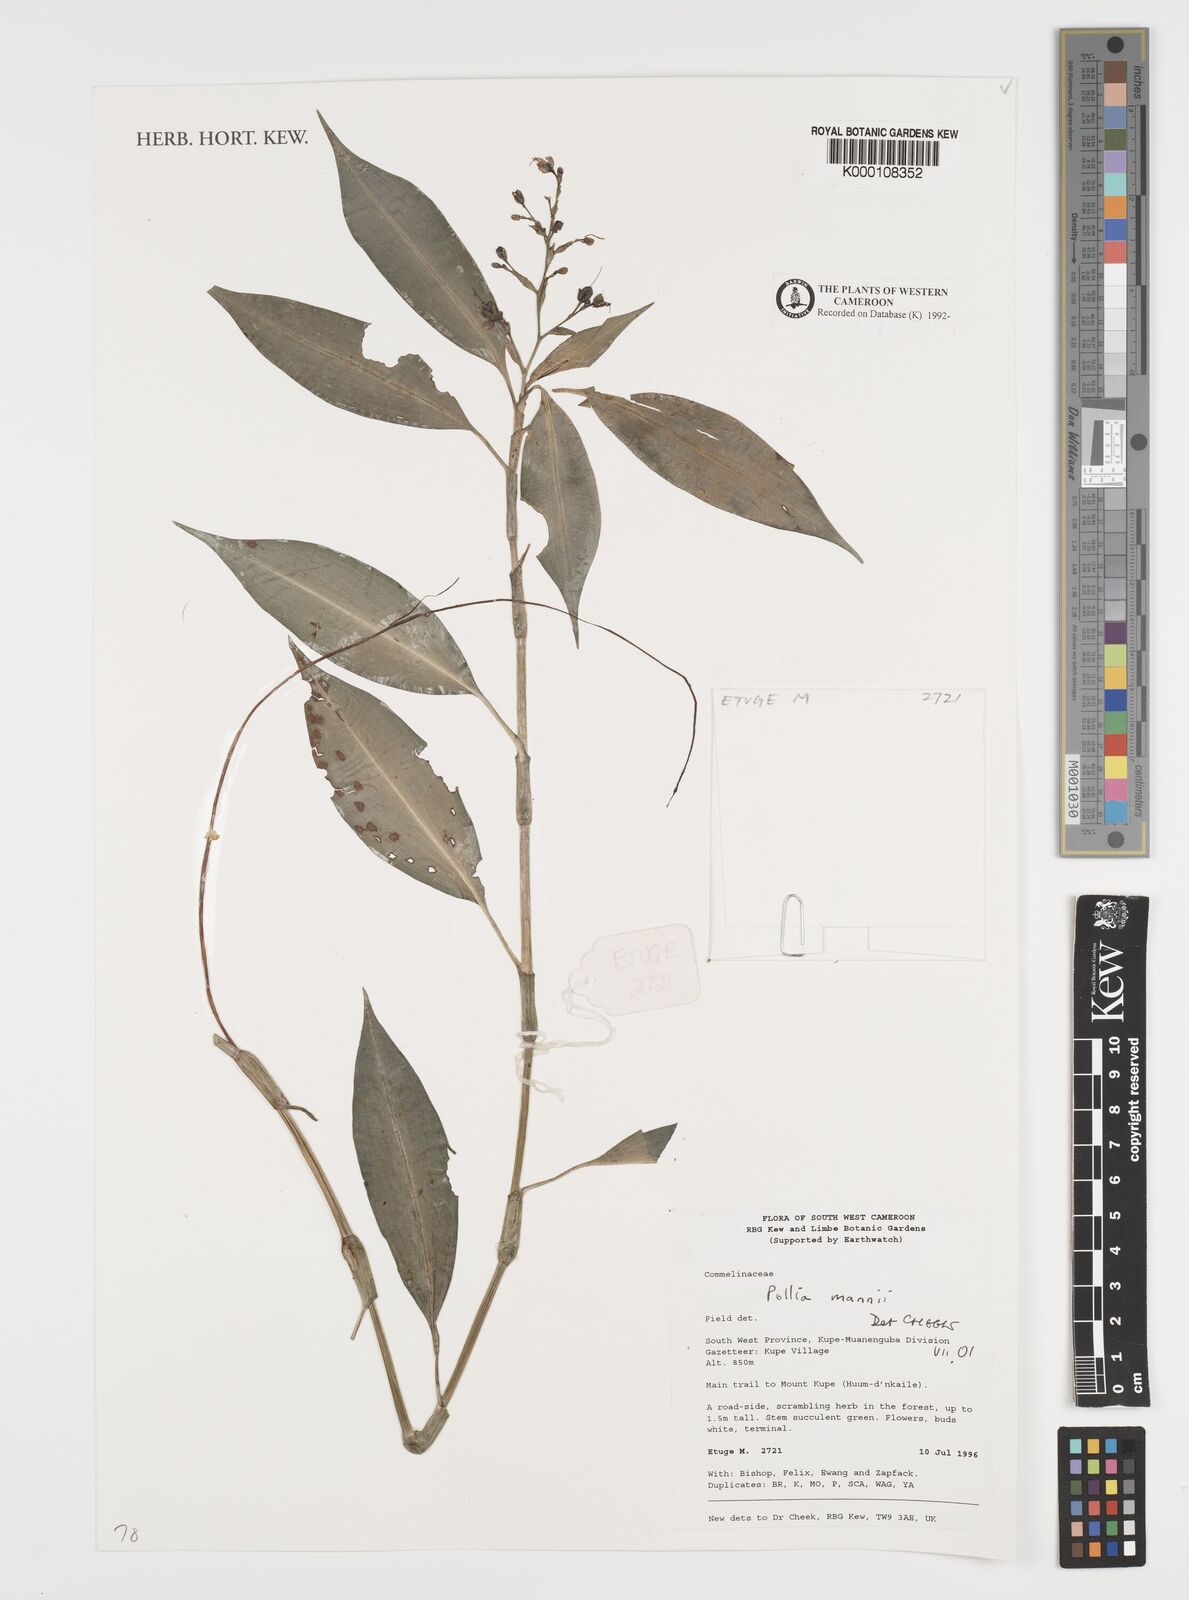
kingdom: Plantae
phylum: Tracheophyta
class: Liliopsida
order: Commelinales
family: Commelinaceae
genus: Pollia
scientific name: Pollia mannii
